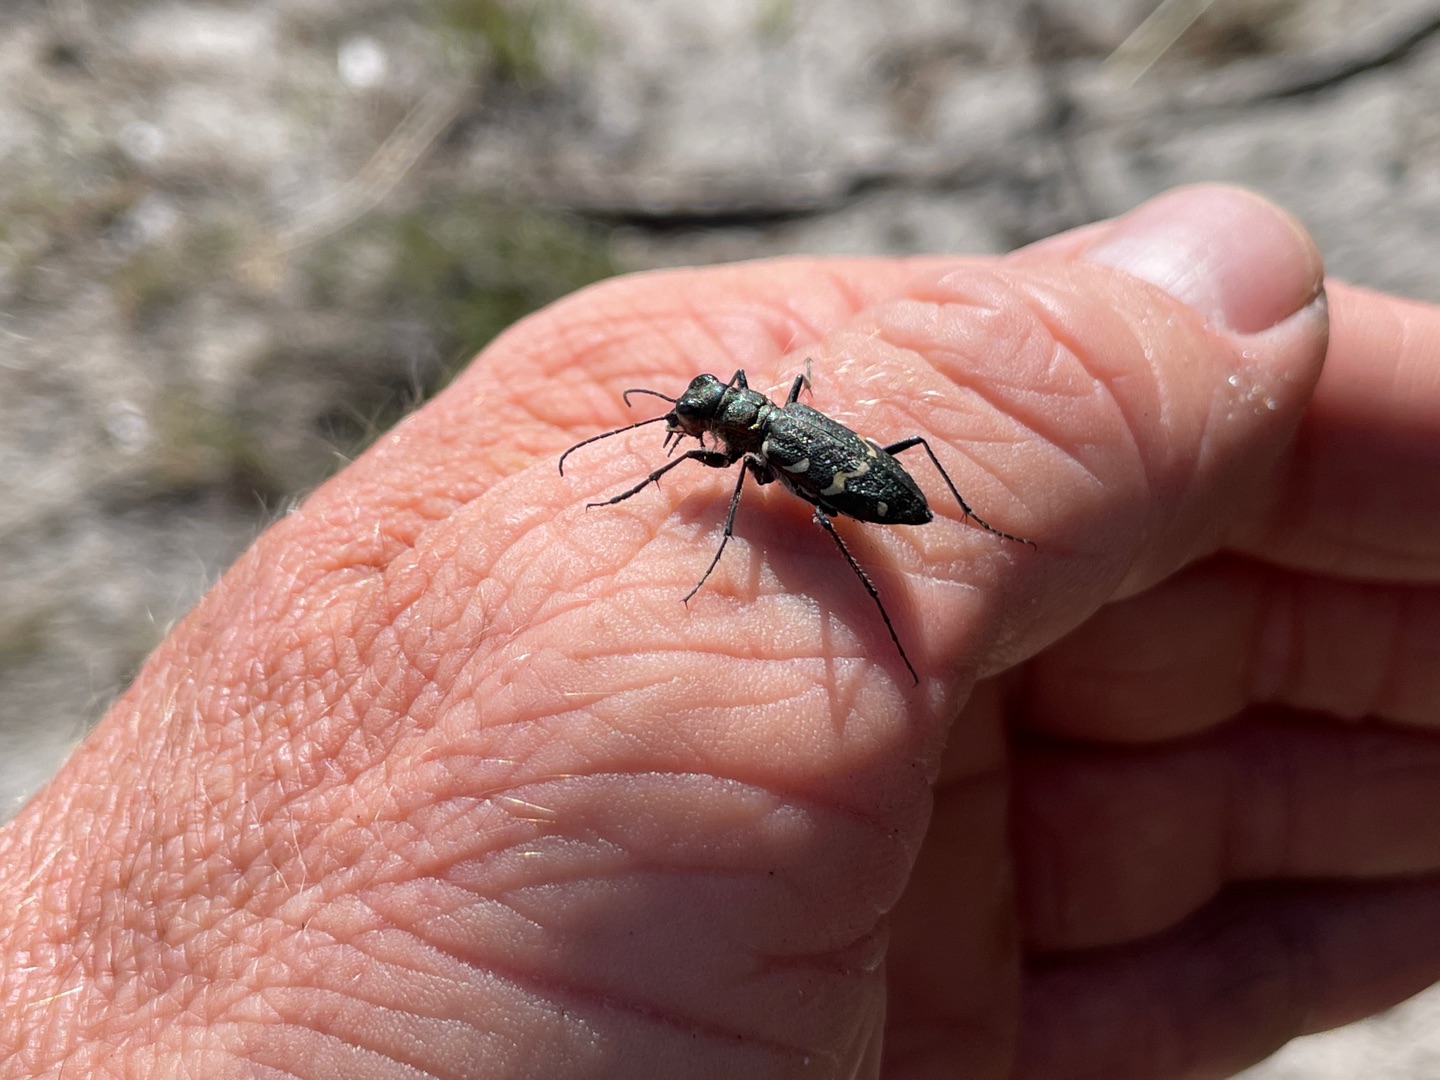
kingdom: Animalia
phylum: Arthropoda
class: Insecta
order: Coleoptera
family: Carabidae
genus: Cicindela
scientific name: Cicindela sylvatica
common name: Stor sandspringer
